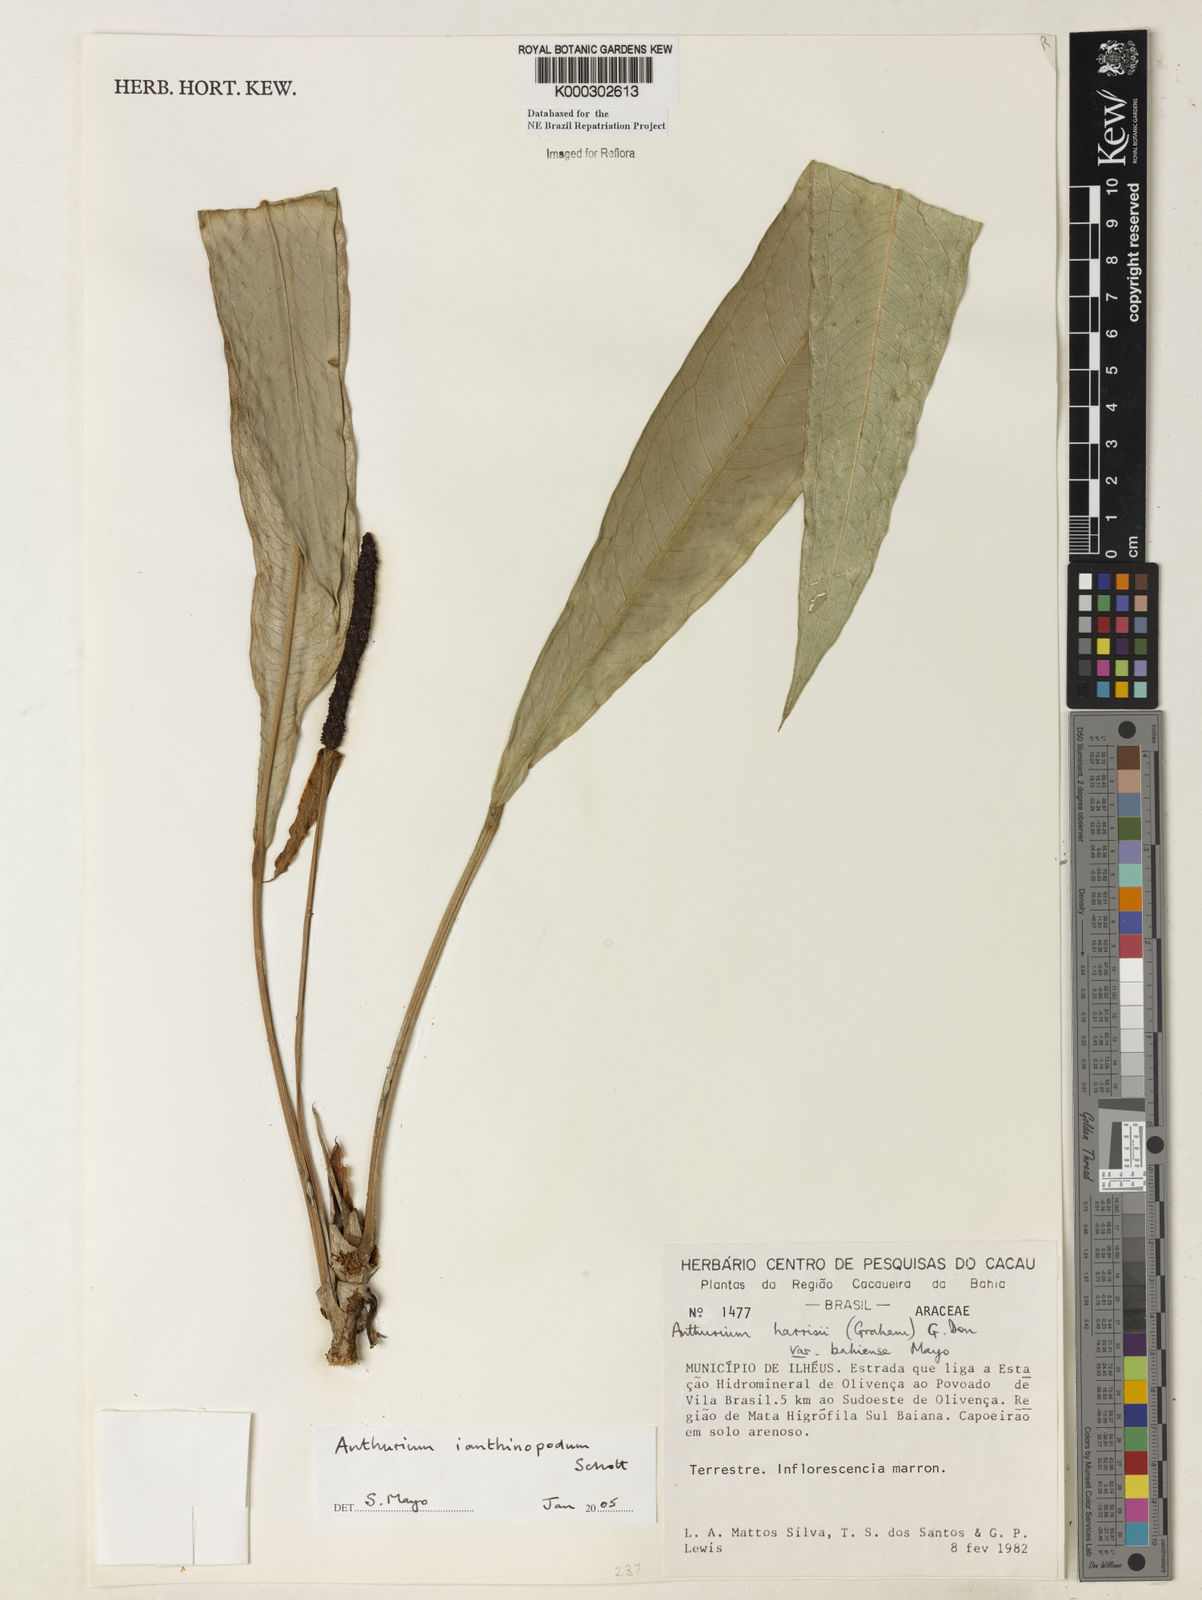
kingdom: Plantae
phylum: Tracheophyta
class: Liliopsida
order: Alismatales
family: Araceae
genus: Anthurium
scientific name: Anthurium ianthinopodum
